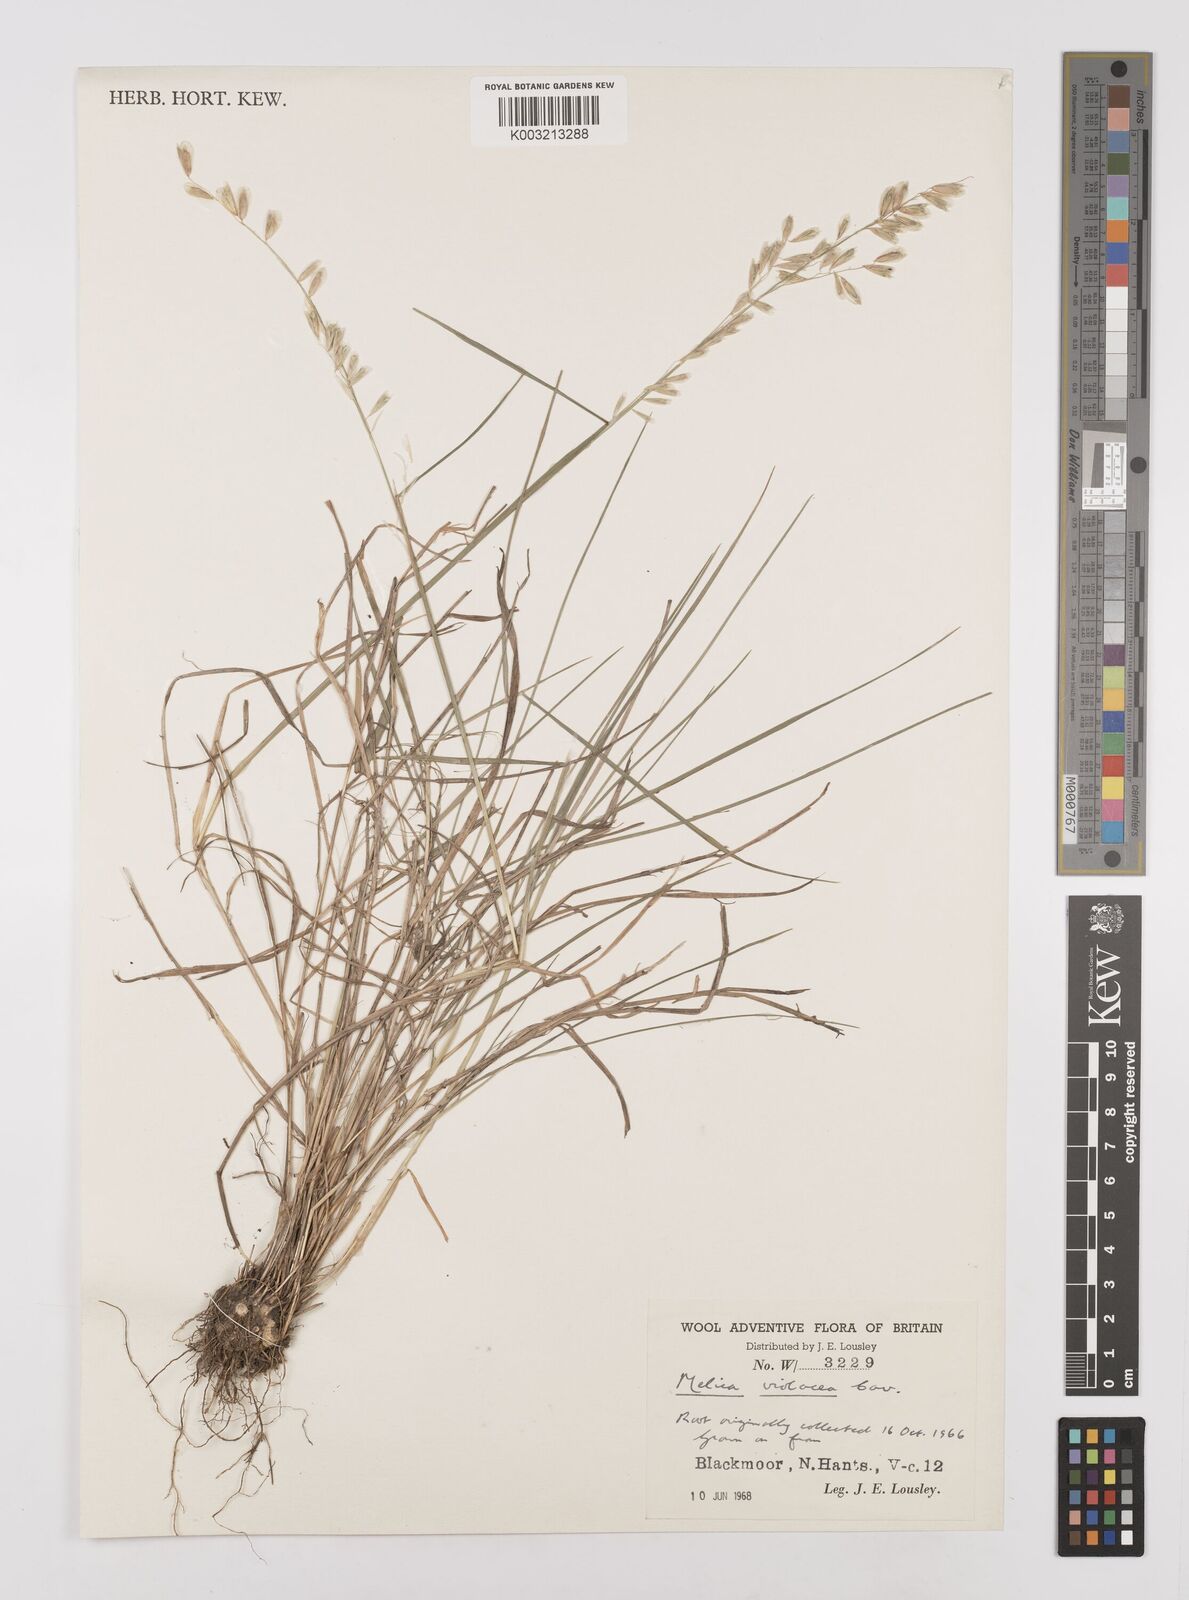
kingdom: Plantae
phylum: Tracheophyta
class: Liliopsida
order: Poales
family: Poaceae
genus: Melica
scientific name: Melica violacea
